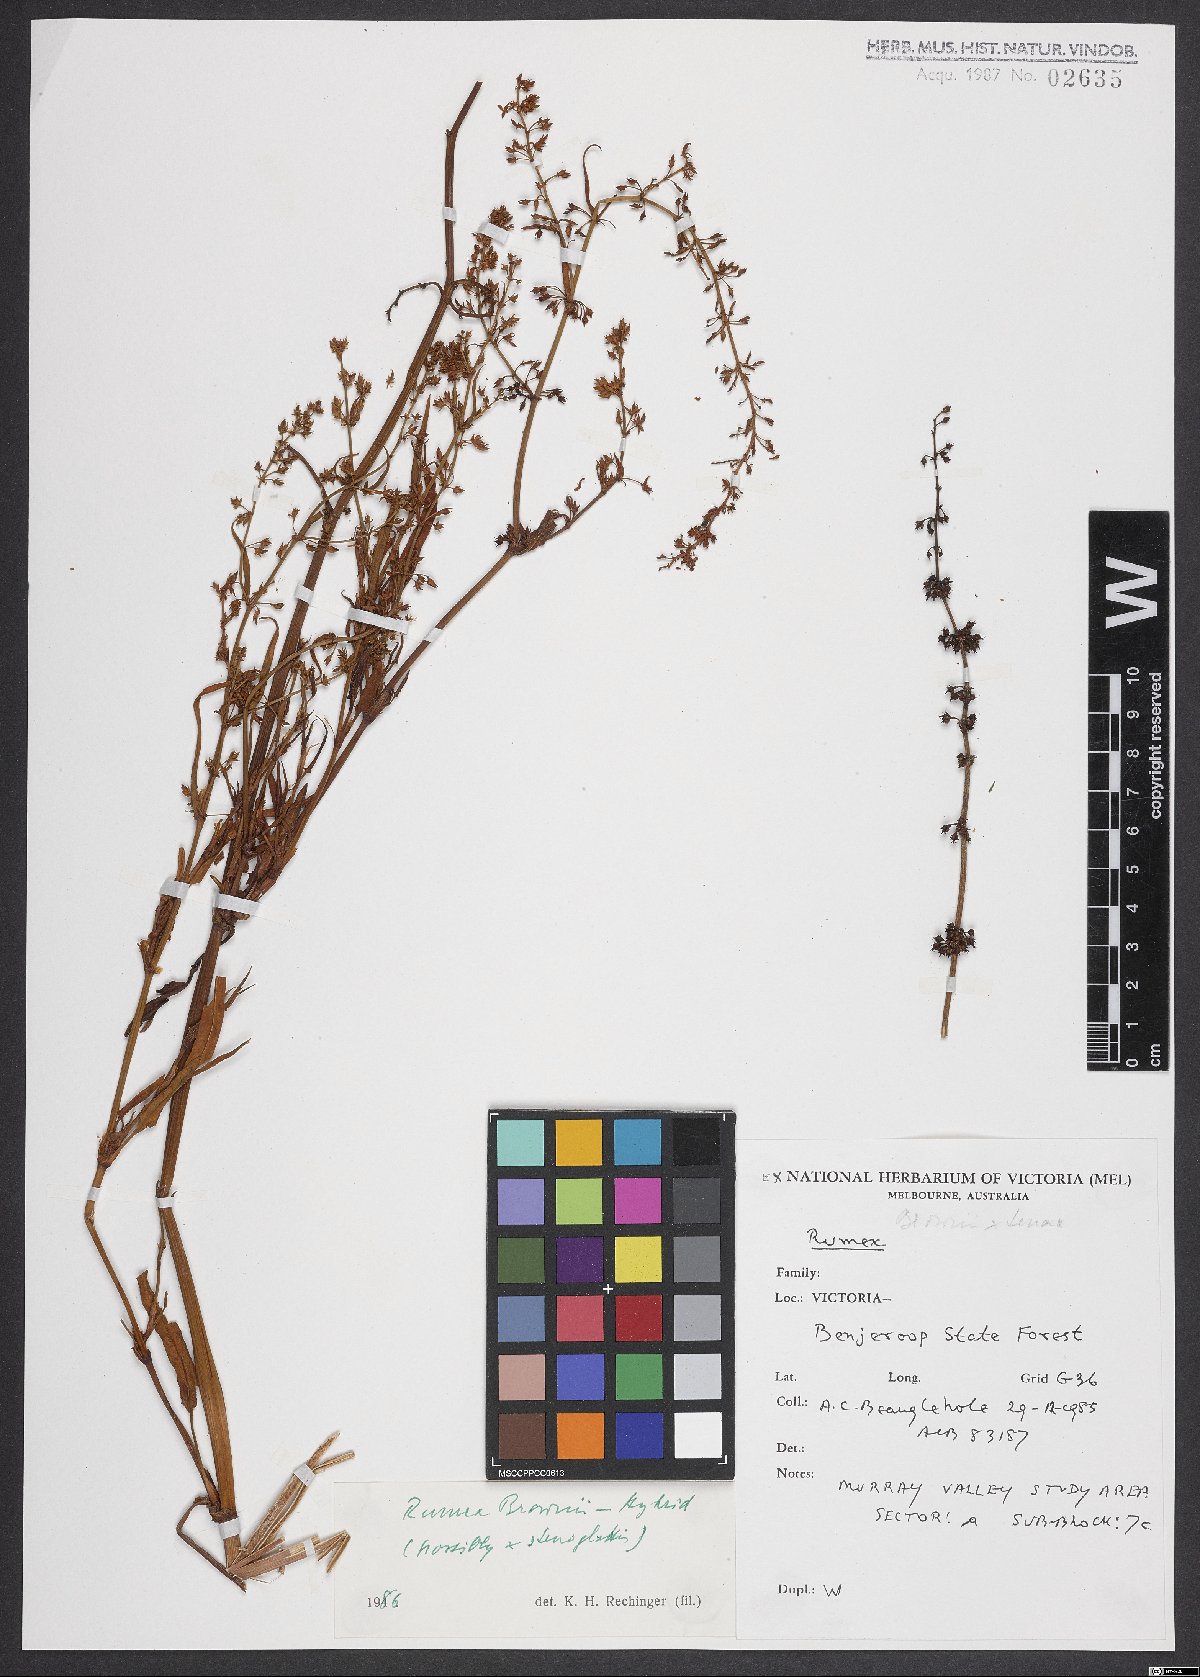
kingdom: Plantae
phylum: Tracheophyta
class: Magnoliopsida
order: Caryophyllales
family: Polygonaceae
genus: Rumex
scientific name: Rumex brownii
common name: Hooked dock
